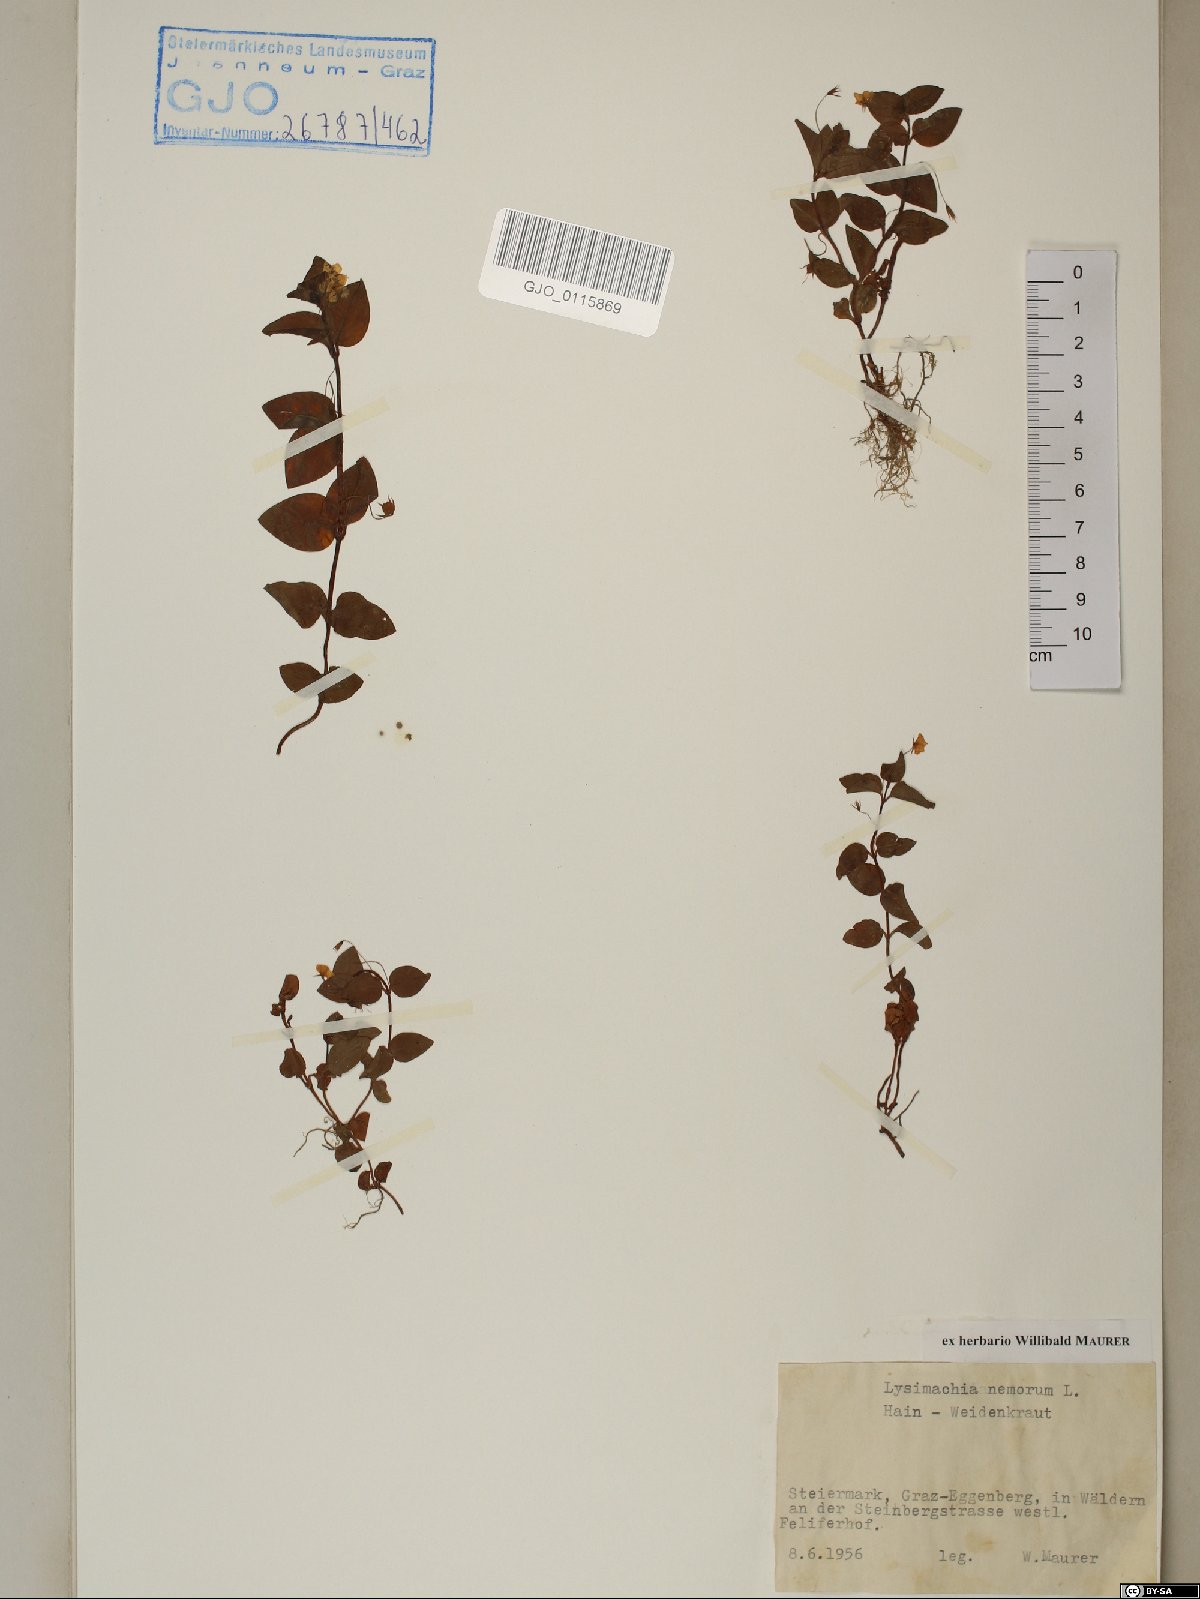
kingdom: Plantae
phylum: Tracheophyta
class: Magnoliopsida
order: Ericales
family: Primulaceae
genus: Lysimachia
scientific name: Lysimachia nemorum
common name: Yellow pimpernel
